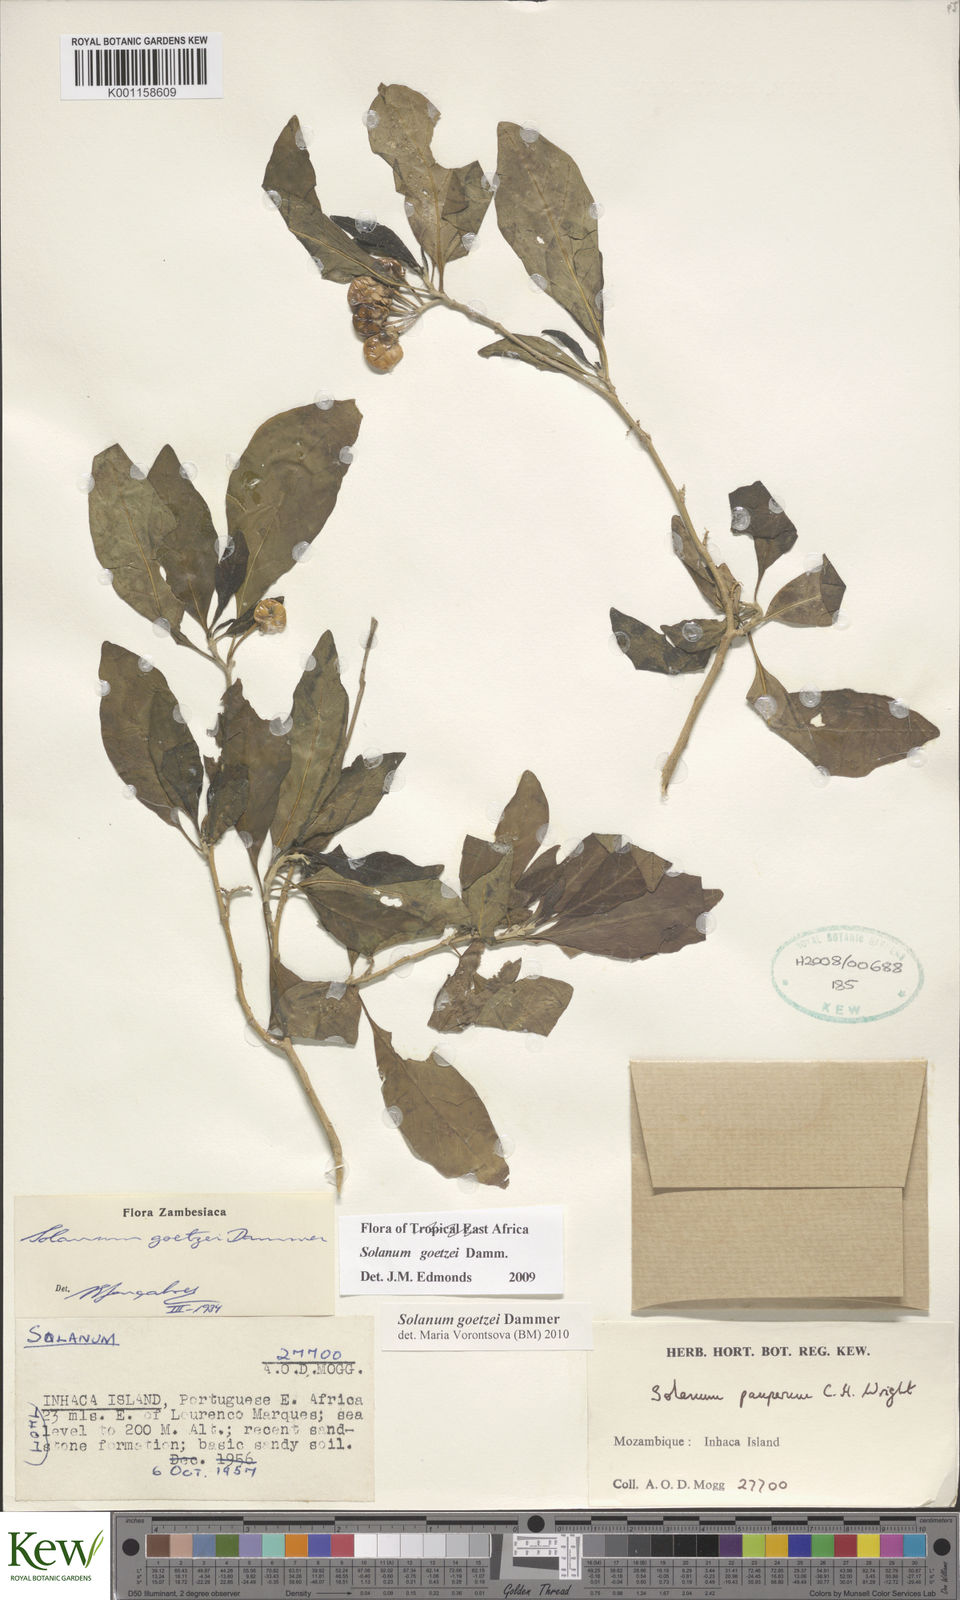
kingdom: Plantae
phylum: Tracheophyta
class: Magnoliopsida
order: Solanales
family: Solanaceae
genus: Solanum
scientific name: Solanum goetzei
